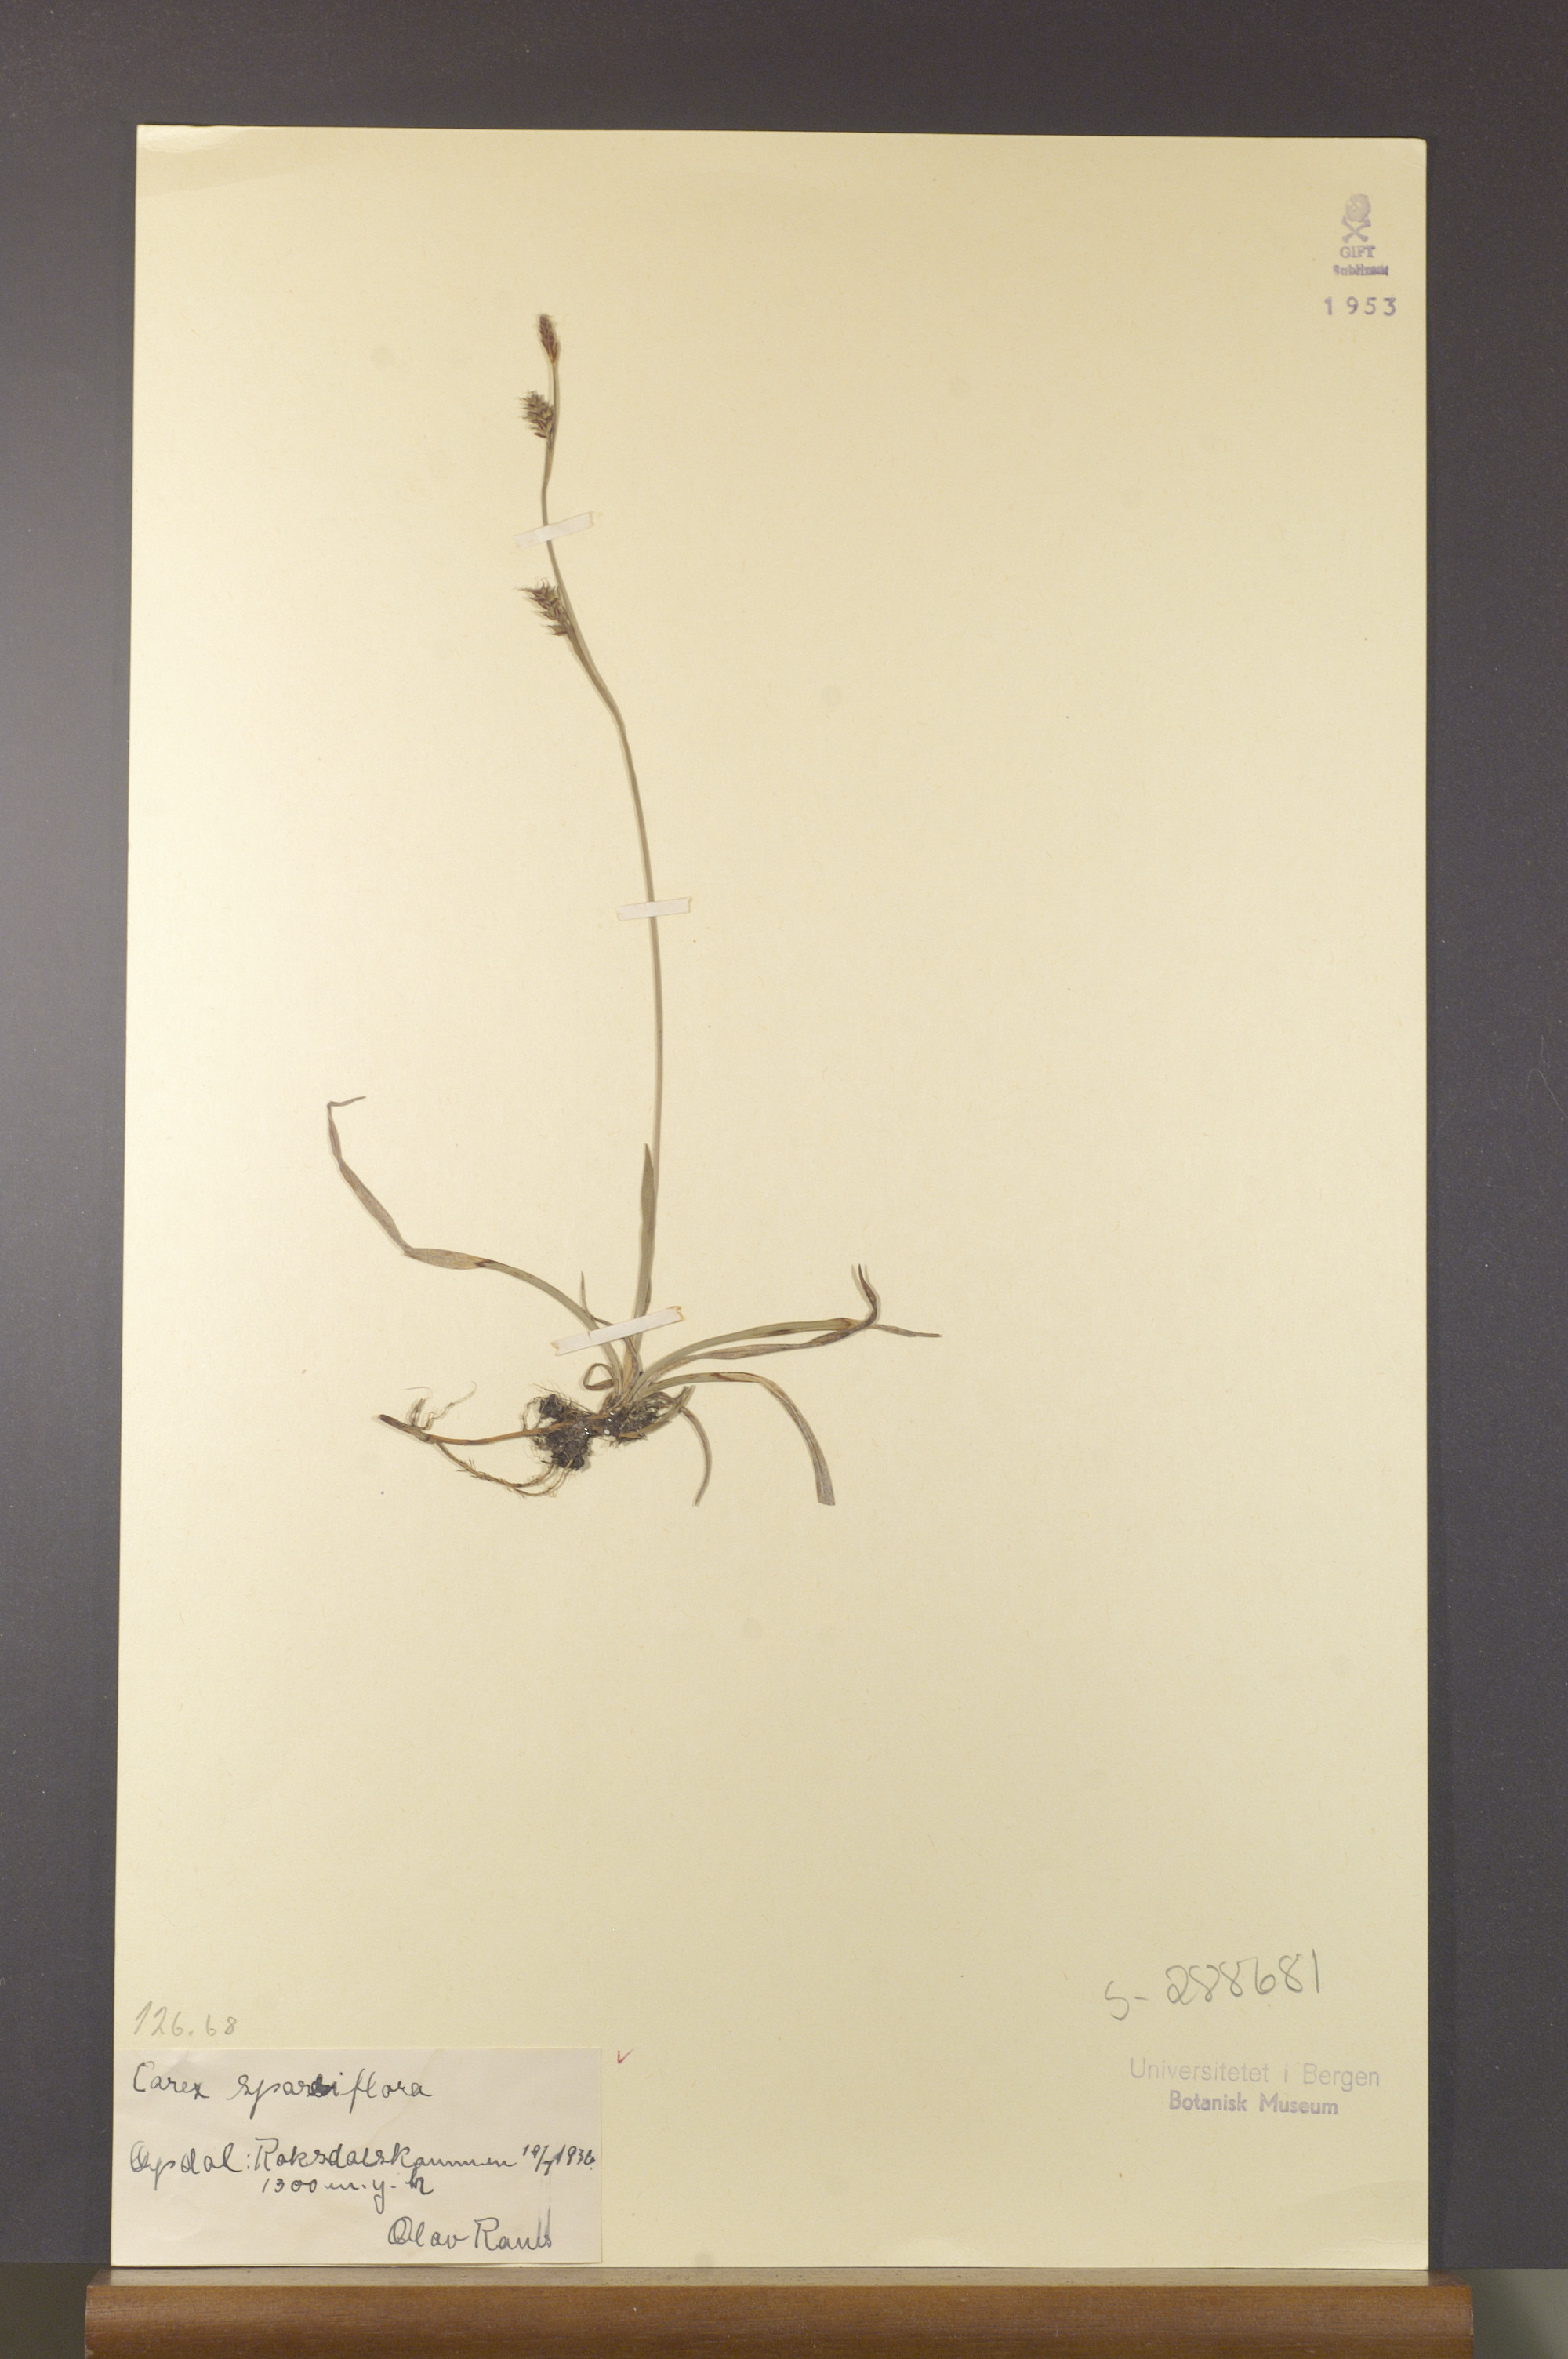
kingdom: Plantae
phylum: Tracheophyta
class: Liliopsida
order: Poales
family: Cyperaceae
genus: Carex
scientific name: Carex vaginata
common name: Sheathed sedge
